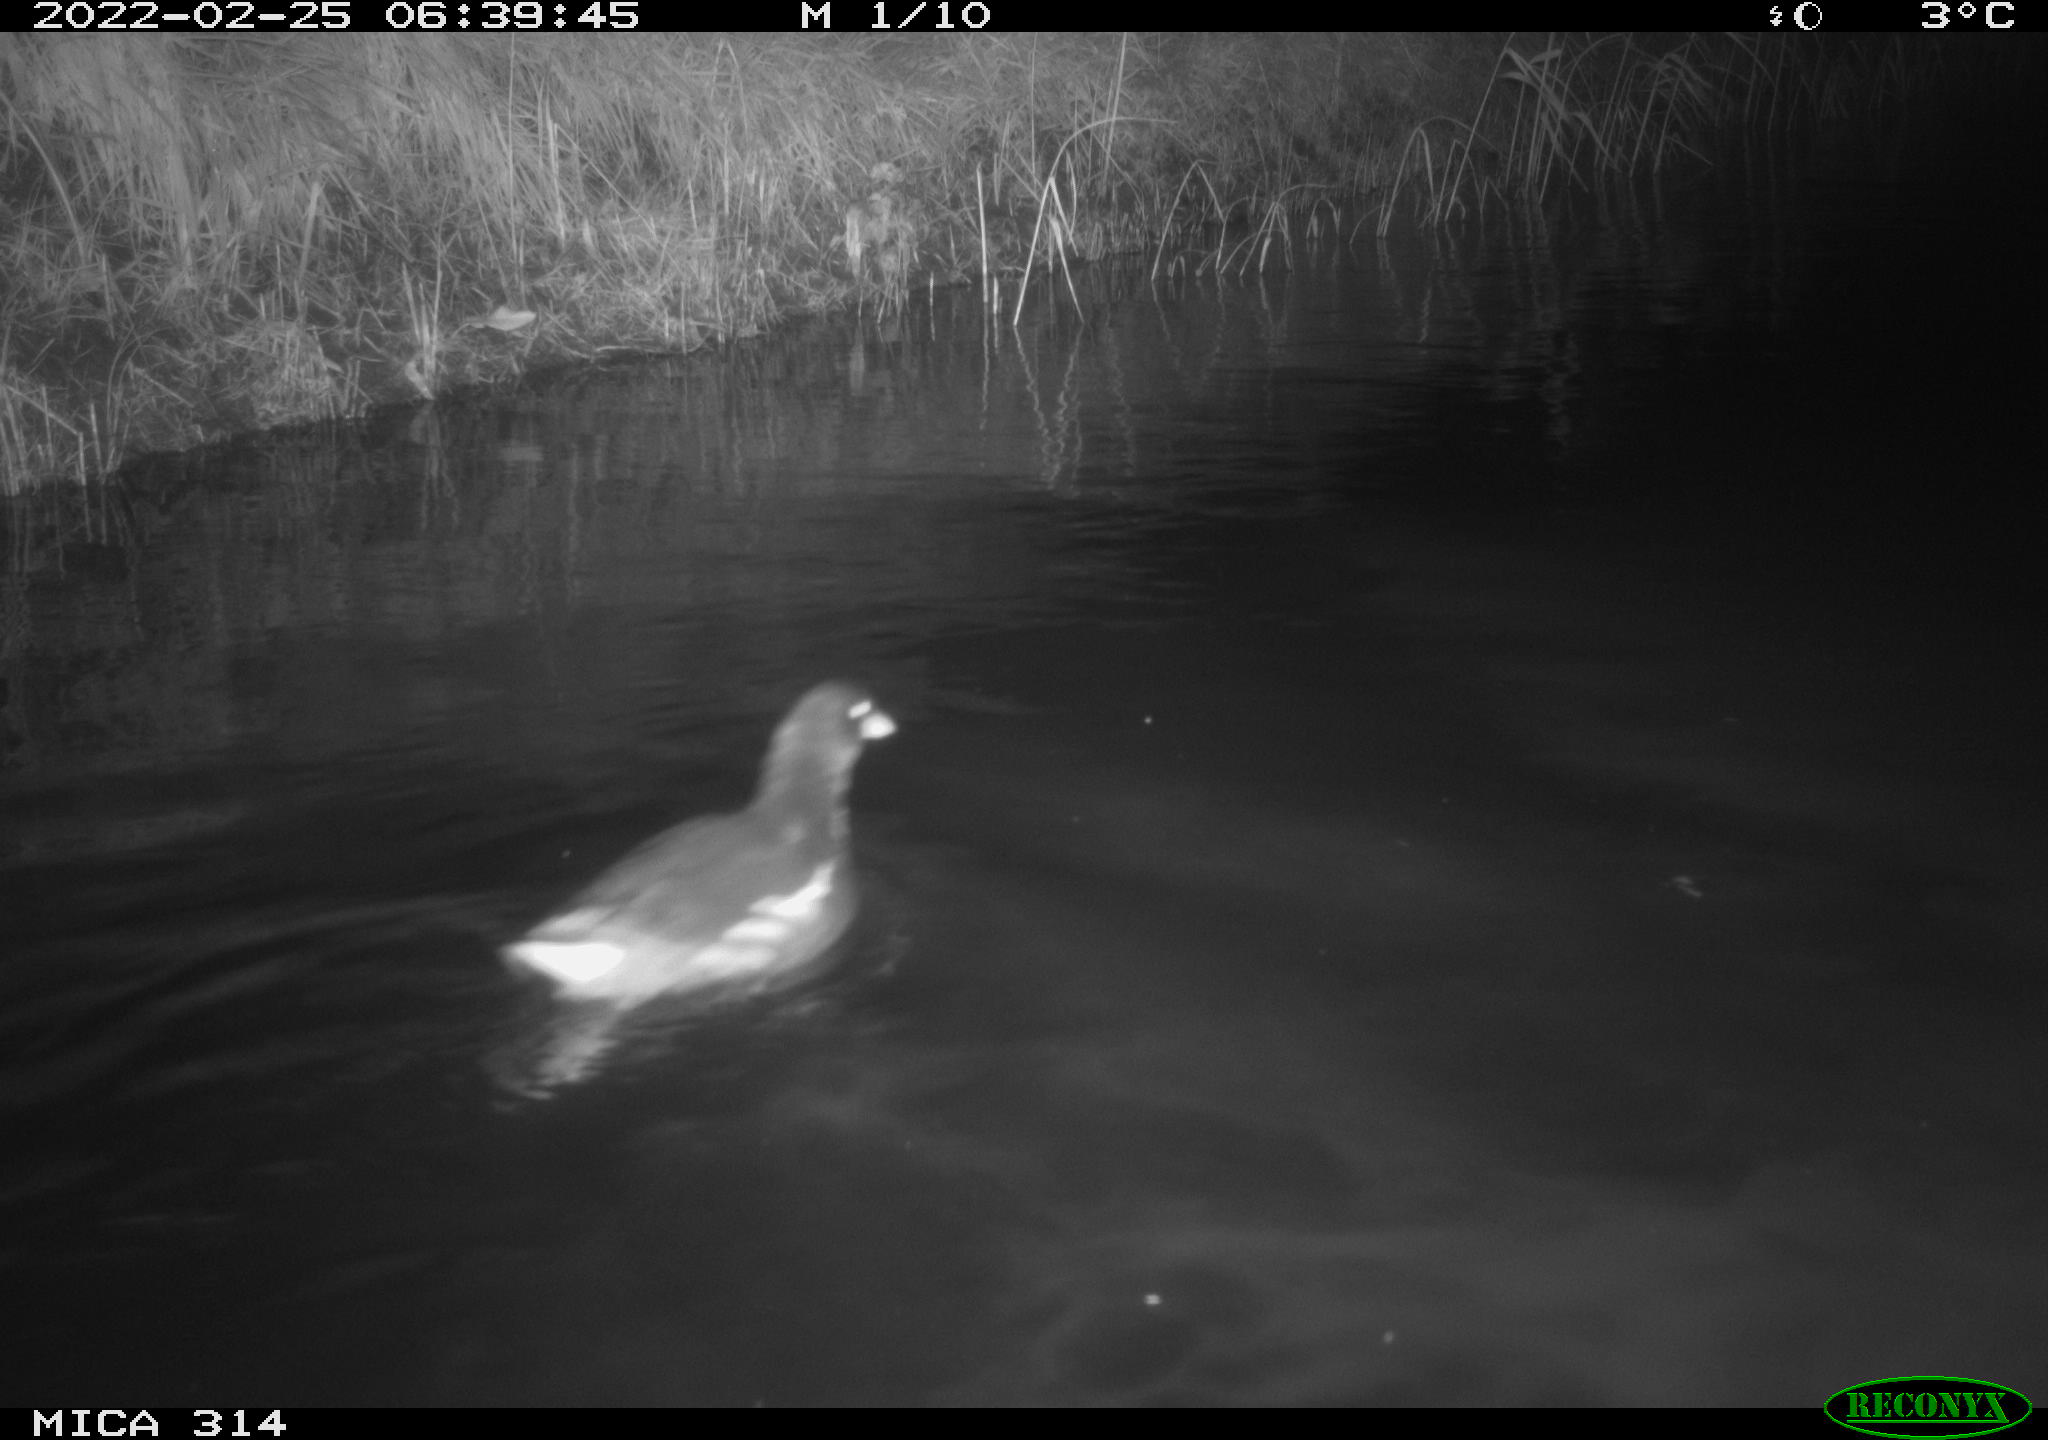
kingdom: Animalia
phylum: Chordata
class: Aves
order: Gruiformes
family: Rallidae
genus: Gallinula
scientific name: Gallinula chloropus
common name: Common moorhen
